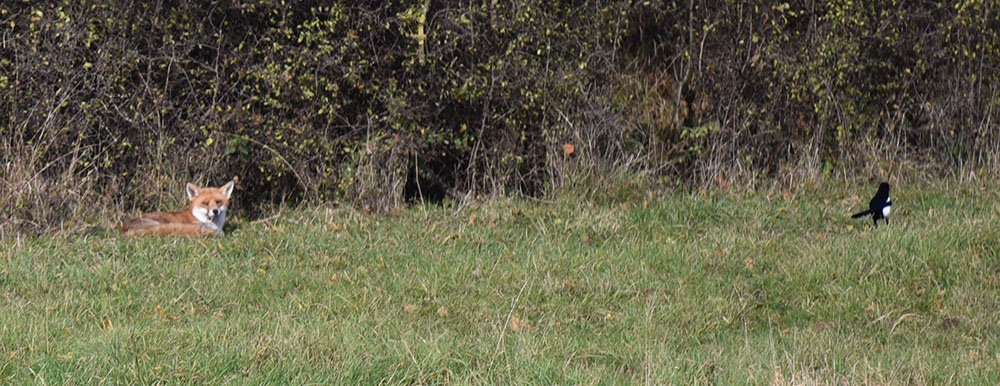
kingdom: Animalia
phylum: Chordata
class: Mammalia
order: Carnivora
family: Canidae
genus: Vulpes
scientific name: Vulpes vulpes
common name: Red fox
